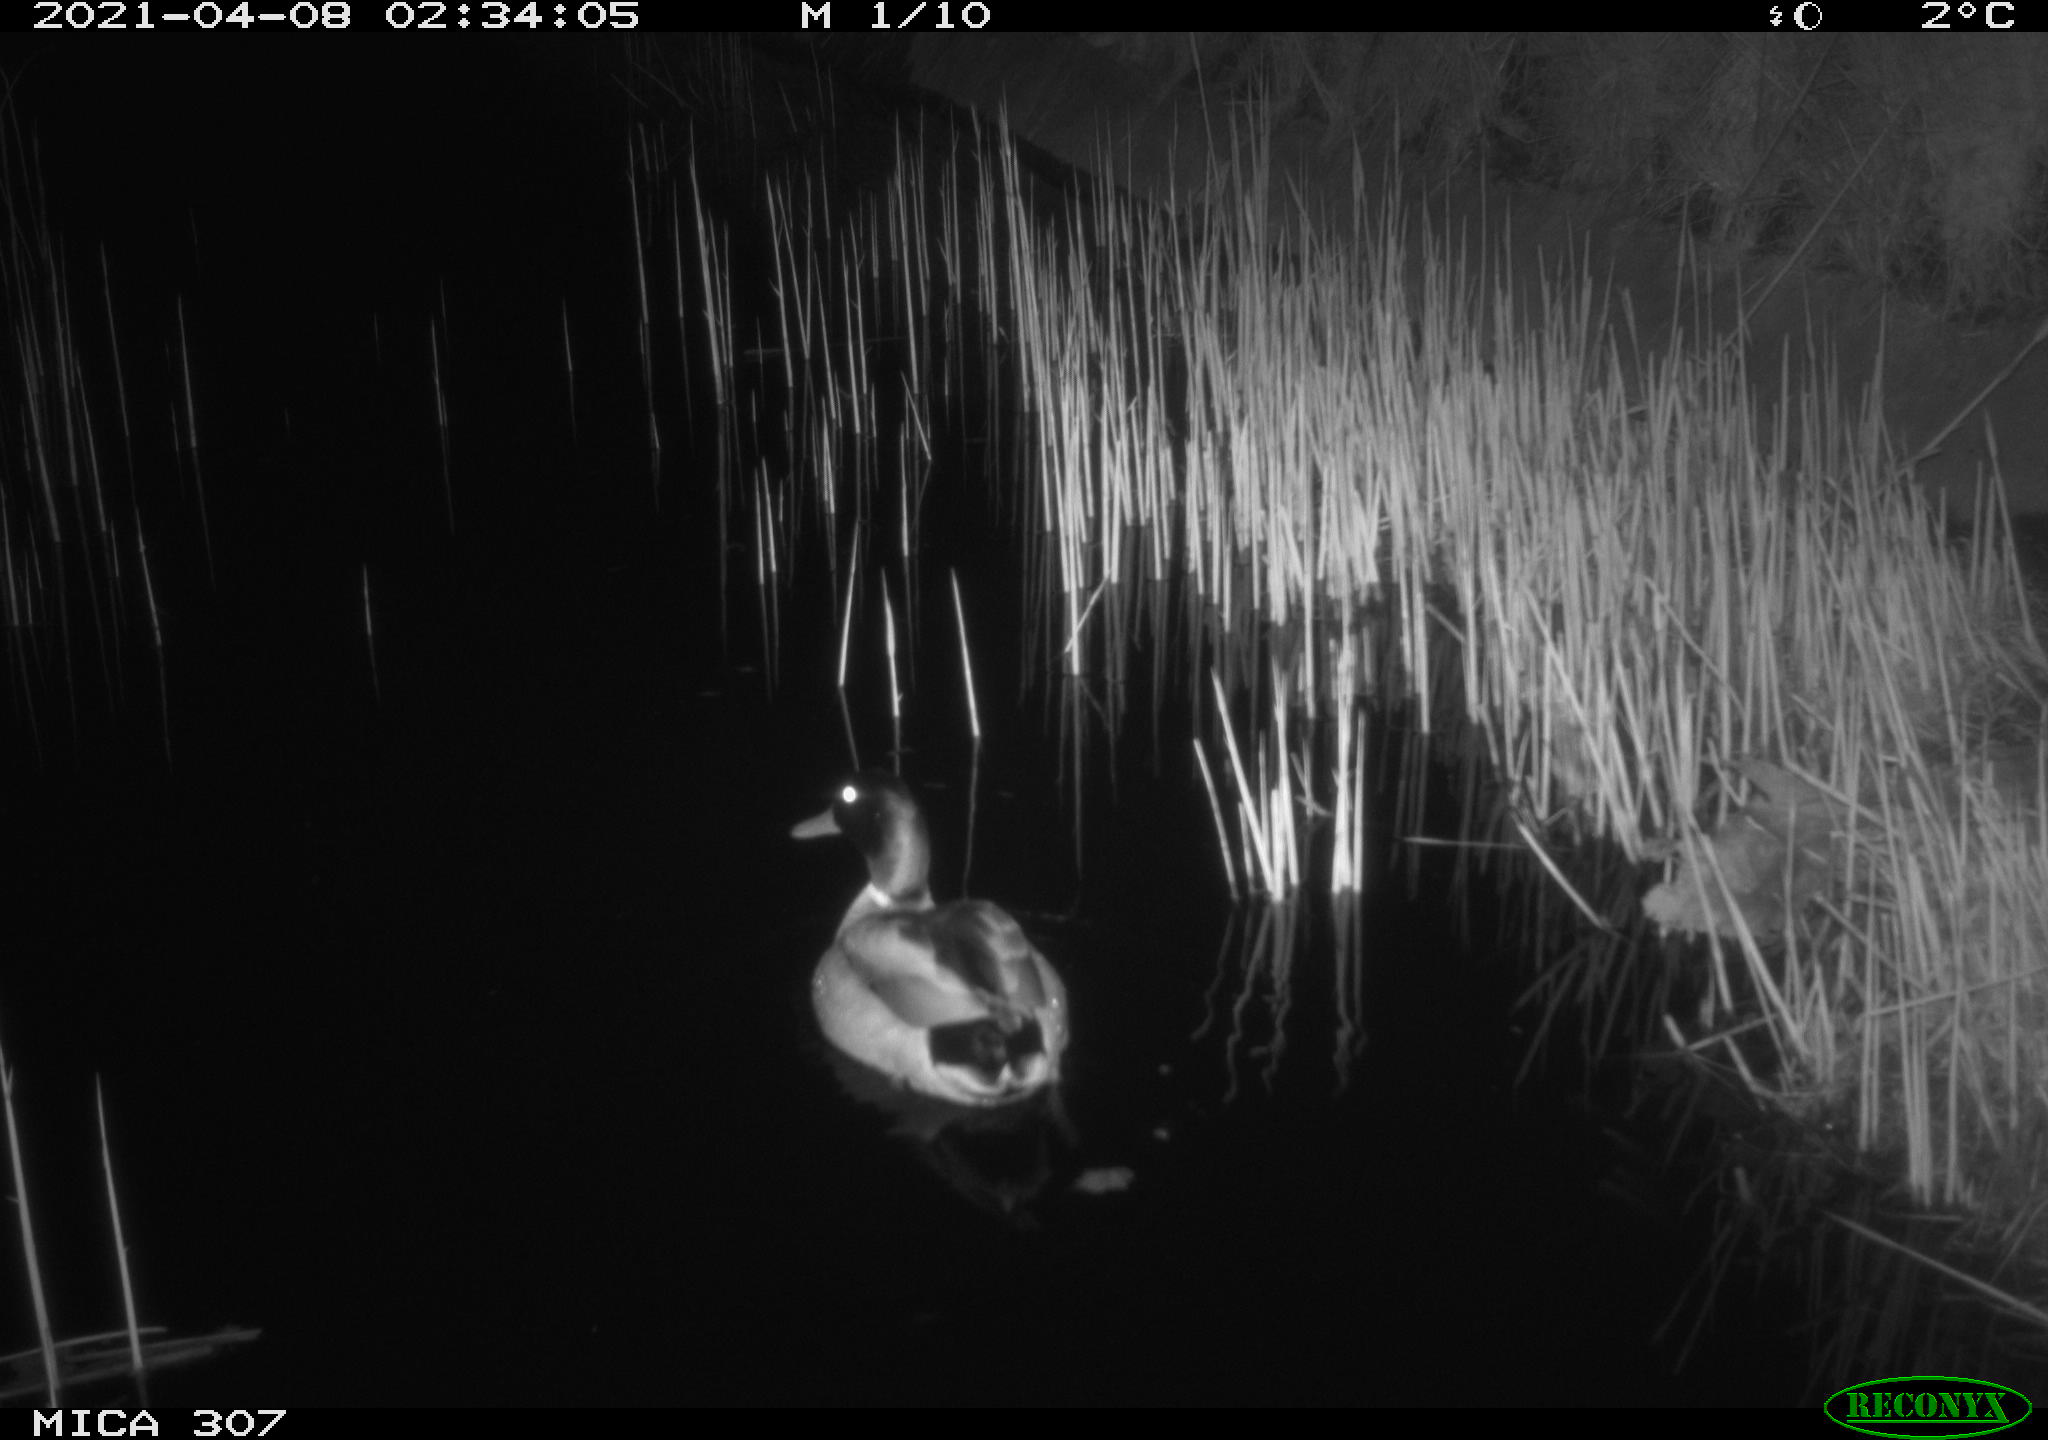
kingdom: Animalia
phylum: Chordata
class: Aves
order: Anseriformes
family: Anatidae
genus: Anas
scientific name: Anas platyrhynchos
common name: Mallard
